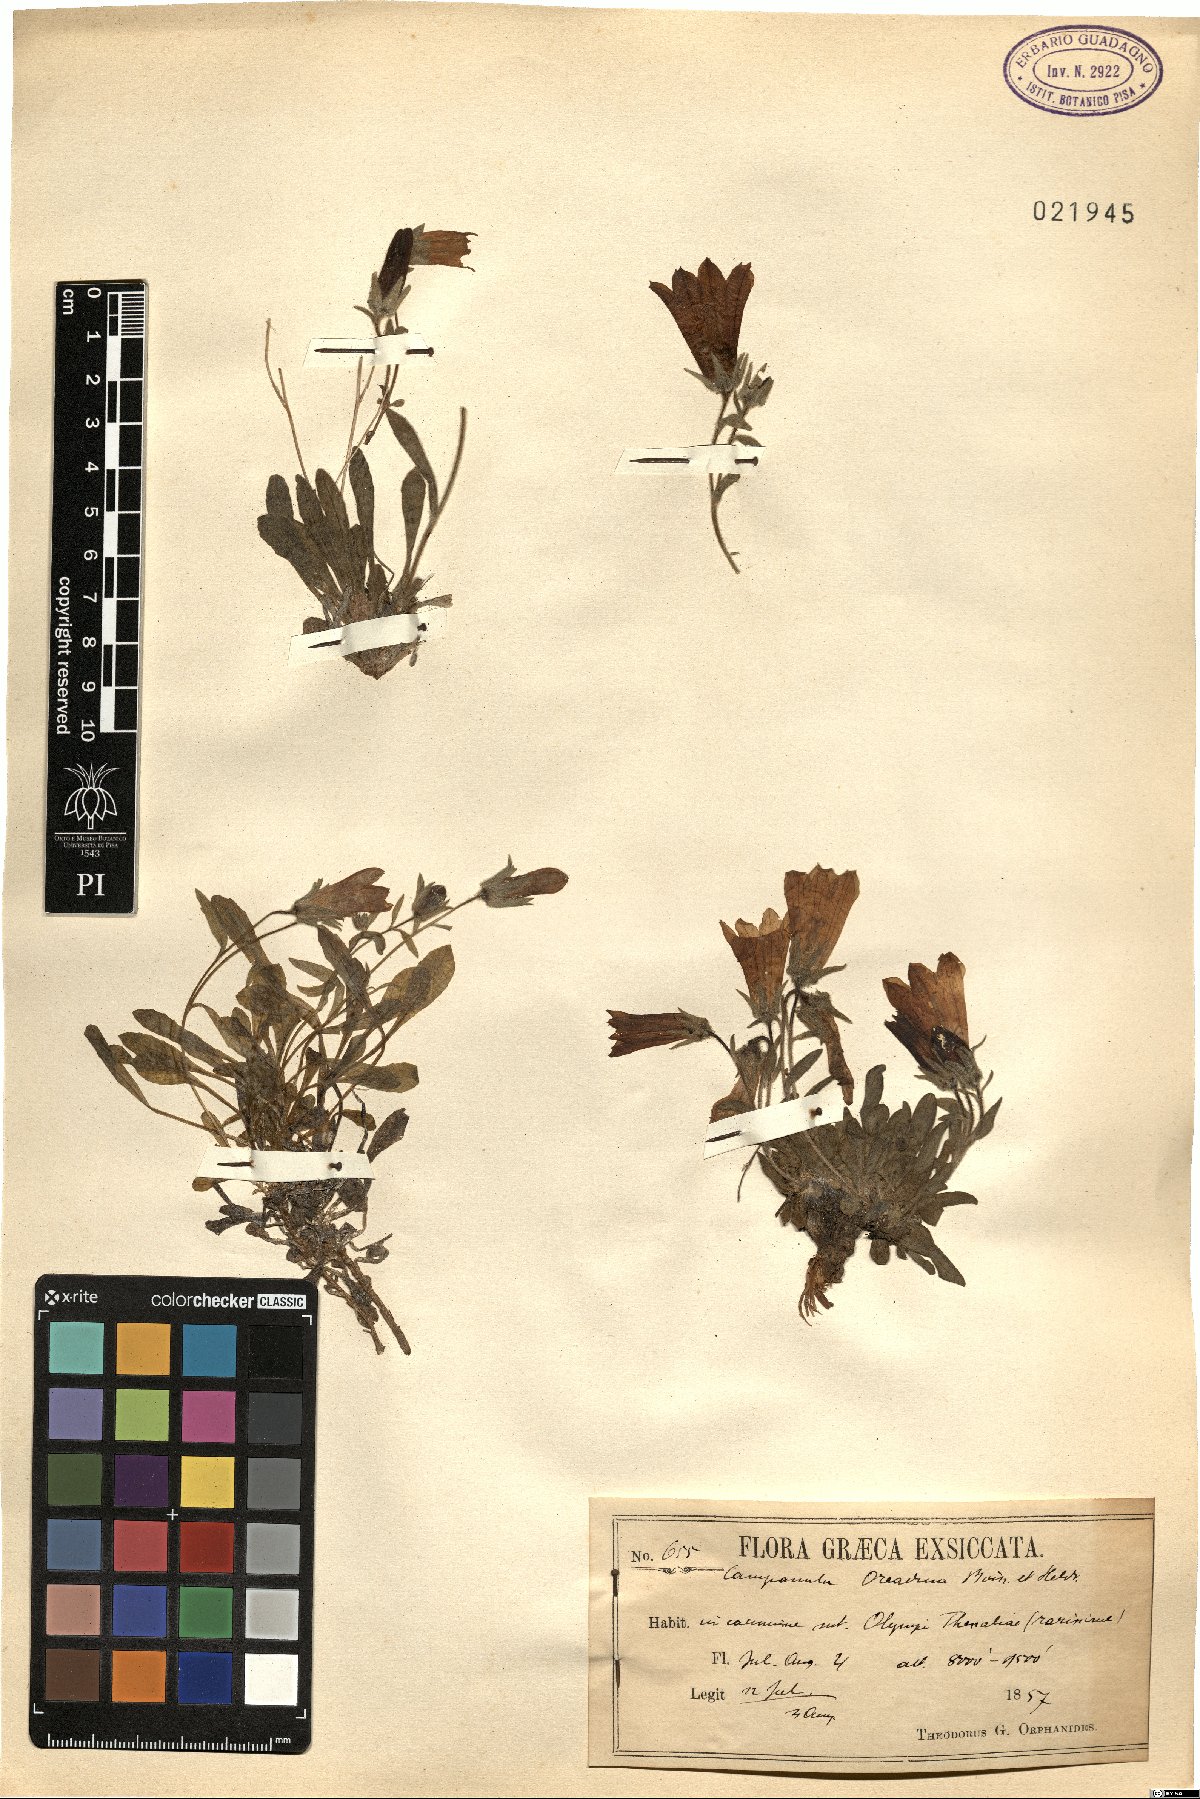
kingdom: Plantae
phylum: Tracheophyta
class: Magnoliopsida
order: Asterales
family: Campanulaceae
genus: Campanula
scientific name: Campanula oreadum
